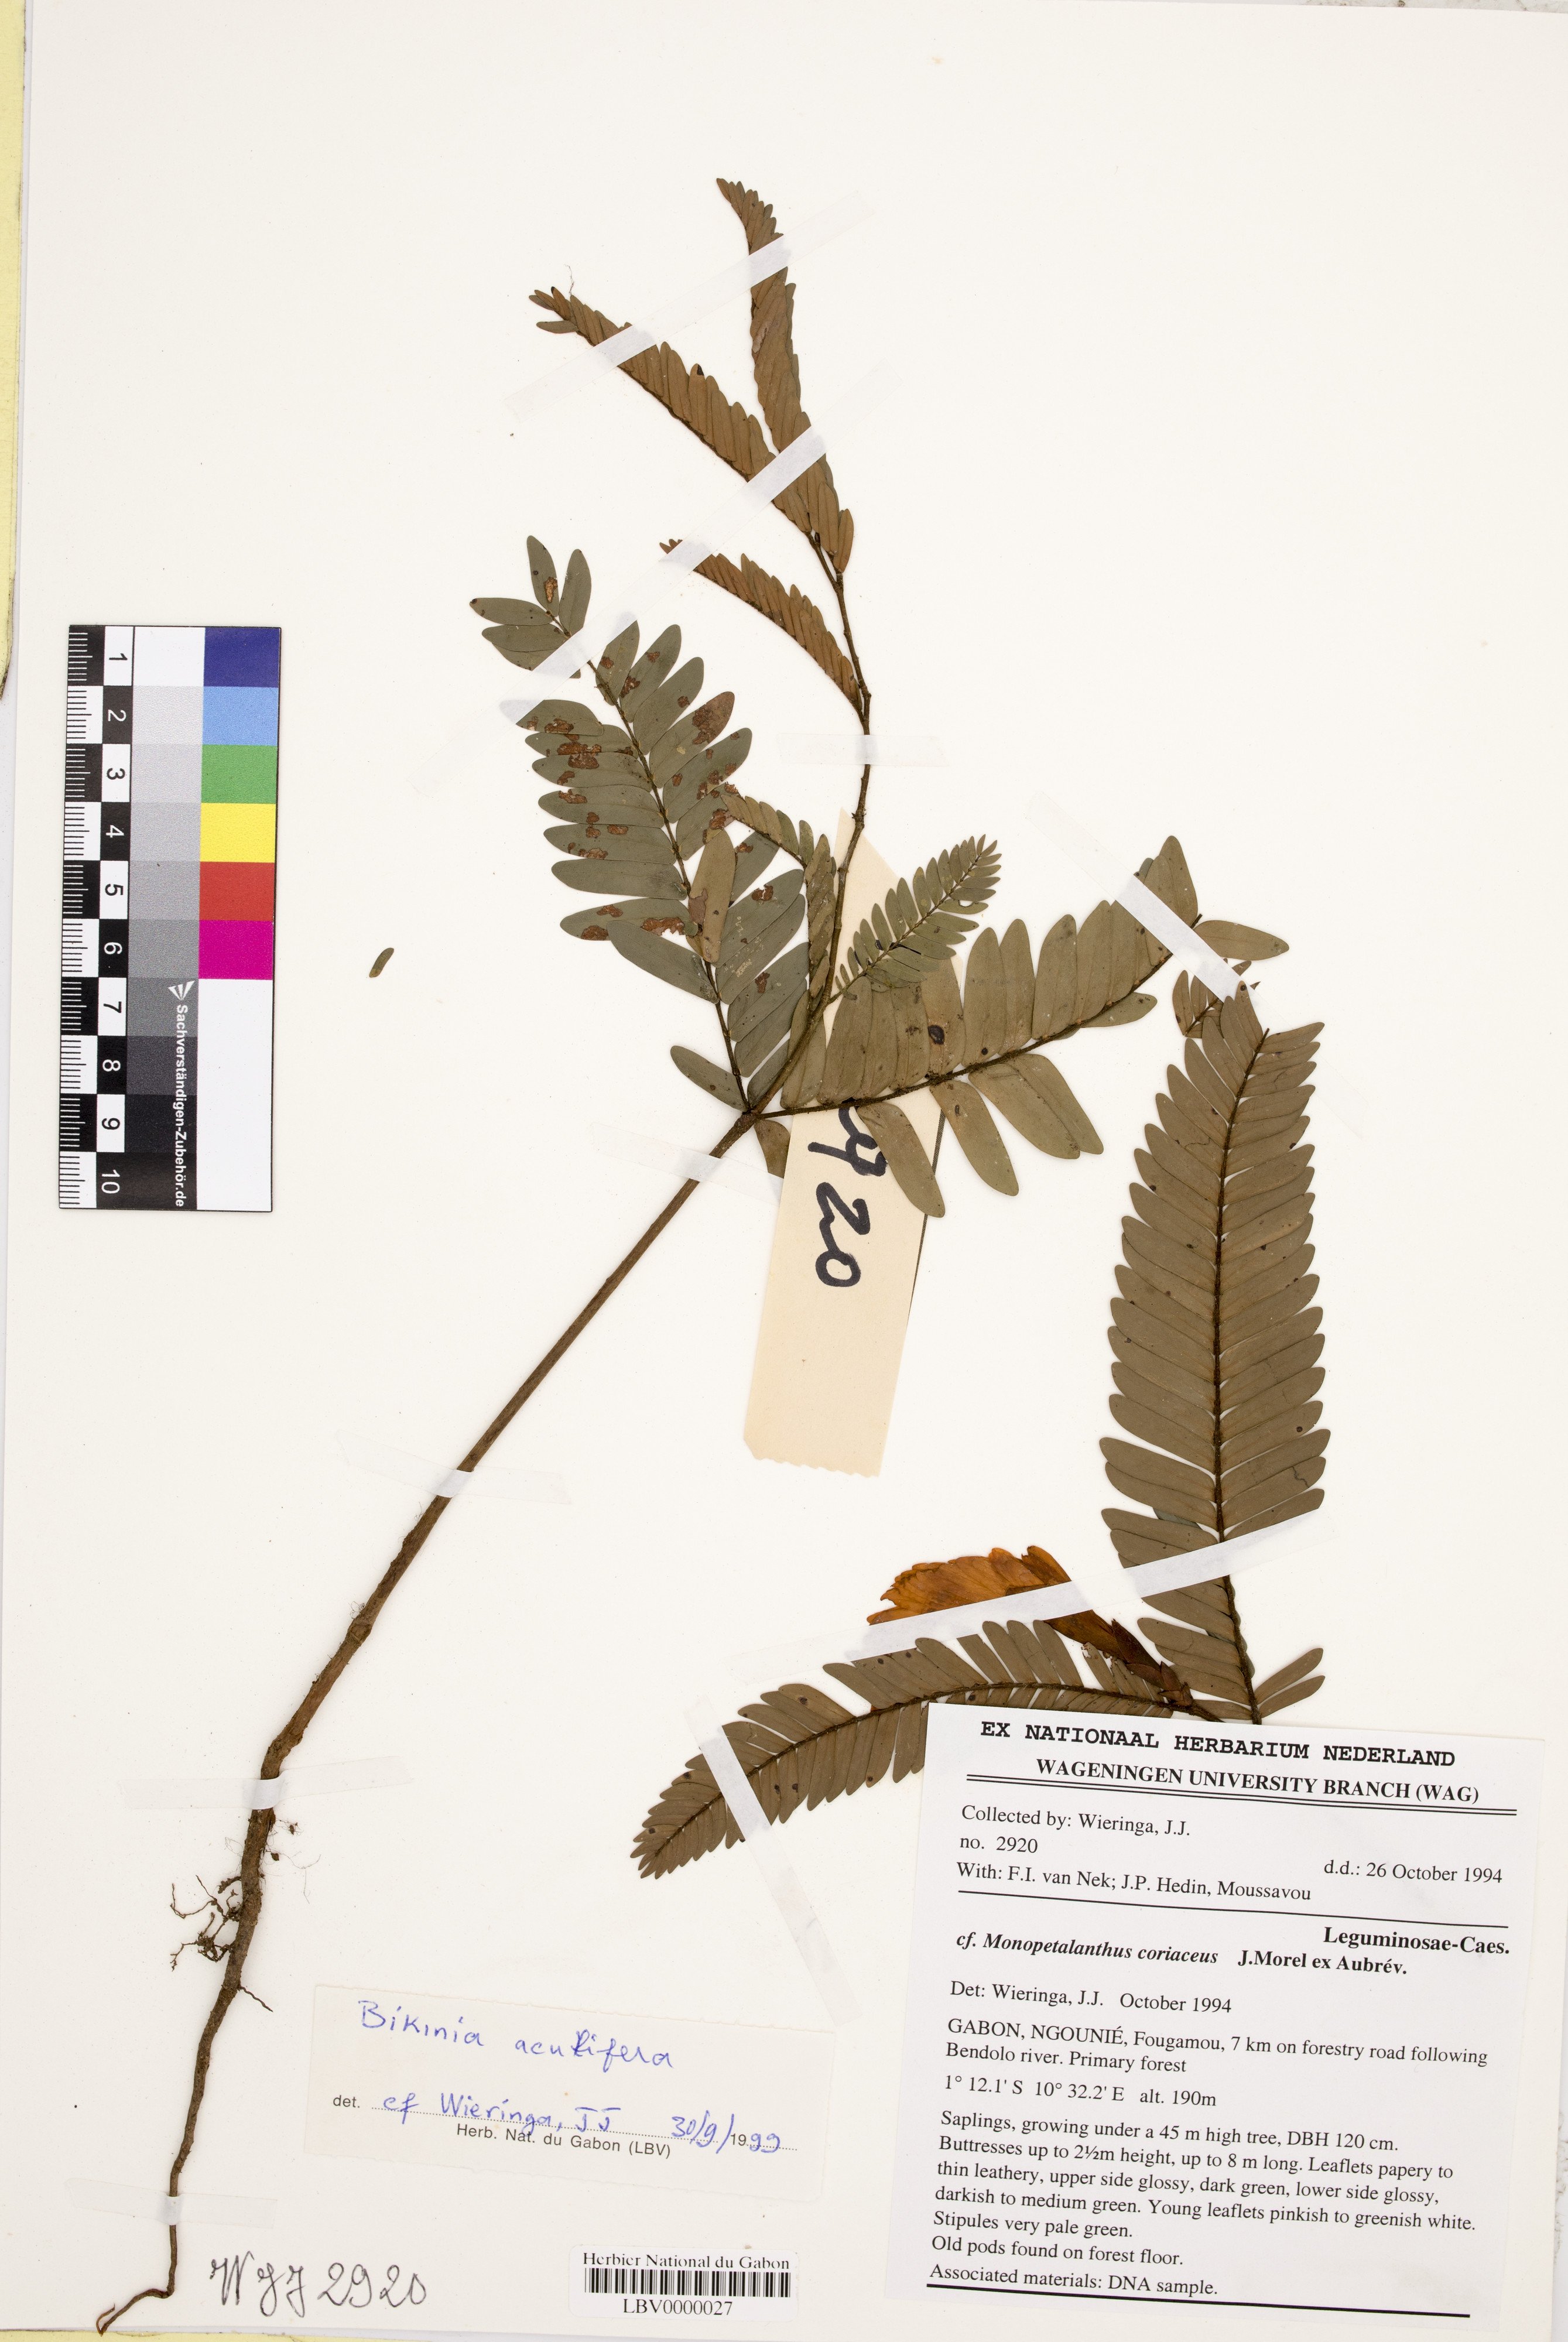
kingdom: Plantae
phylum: Tracheophyta
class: Magnoliopsida
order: Fabales
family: Fabaceae
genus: Bikinia
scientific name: Bikinia aciculifera
